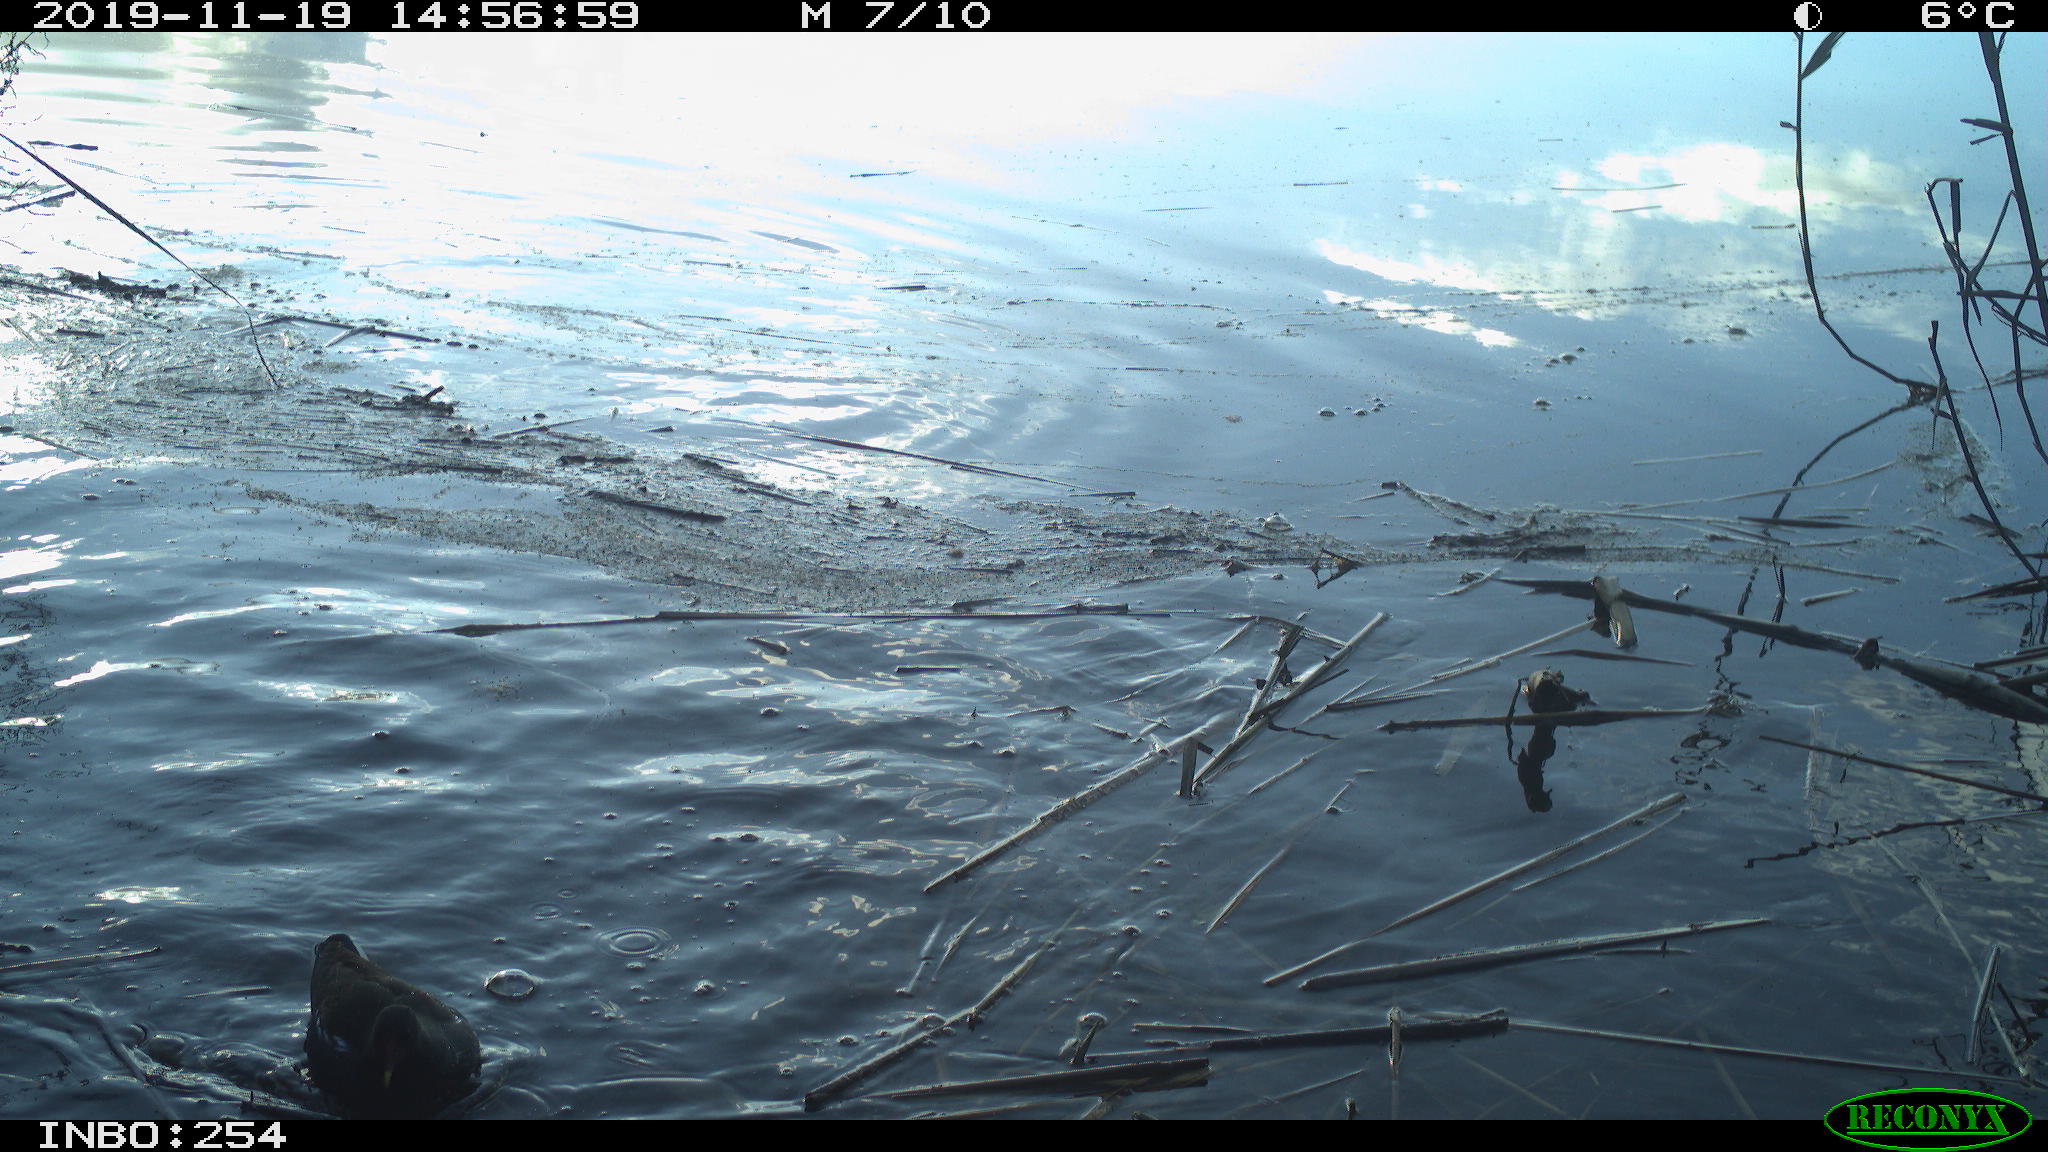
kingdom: Animalia
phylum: Chordata
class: Aves
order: Gruiformes
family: Rallidae
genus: Gallinula
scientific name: Gallinula chloropus
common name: Common moorhen
